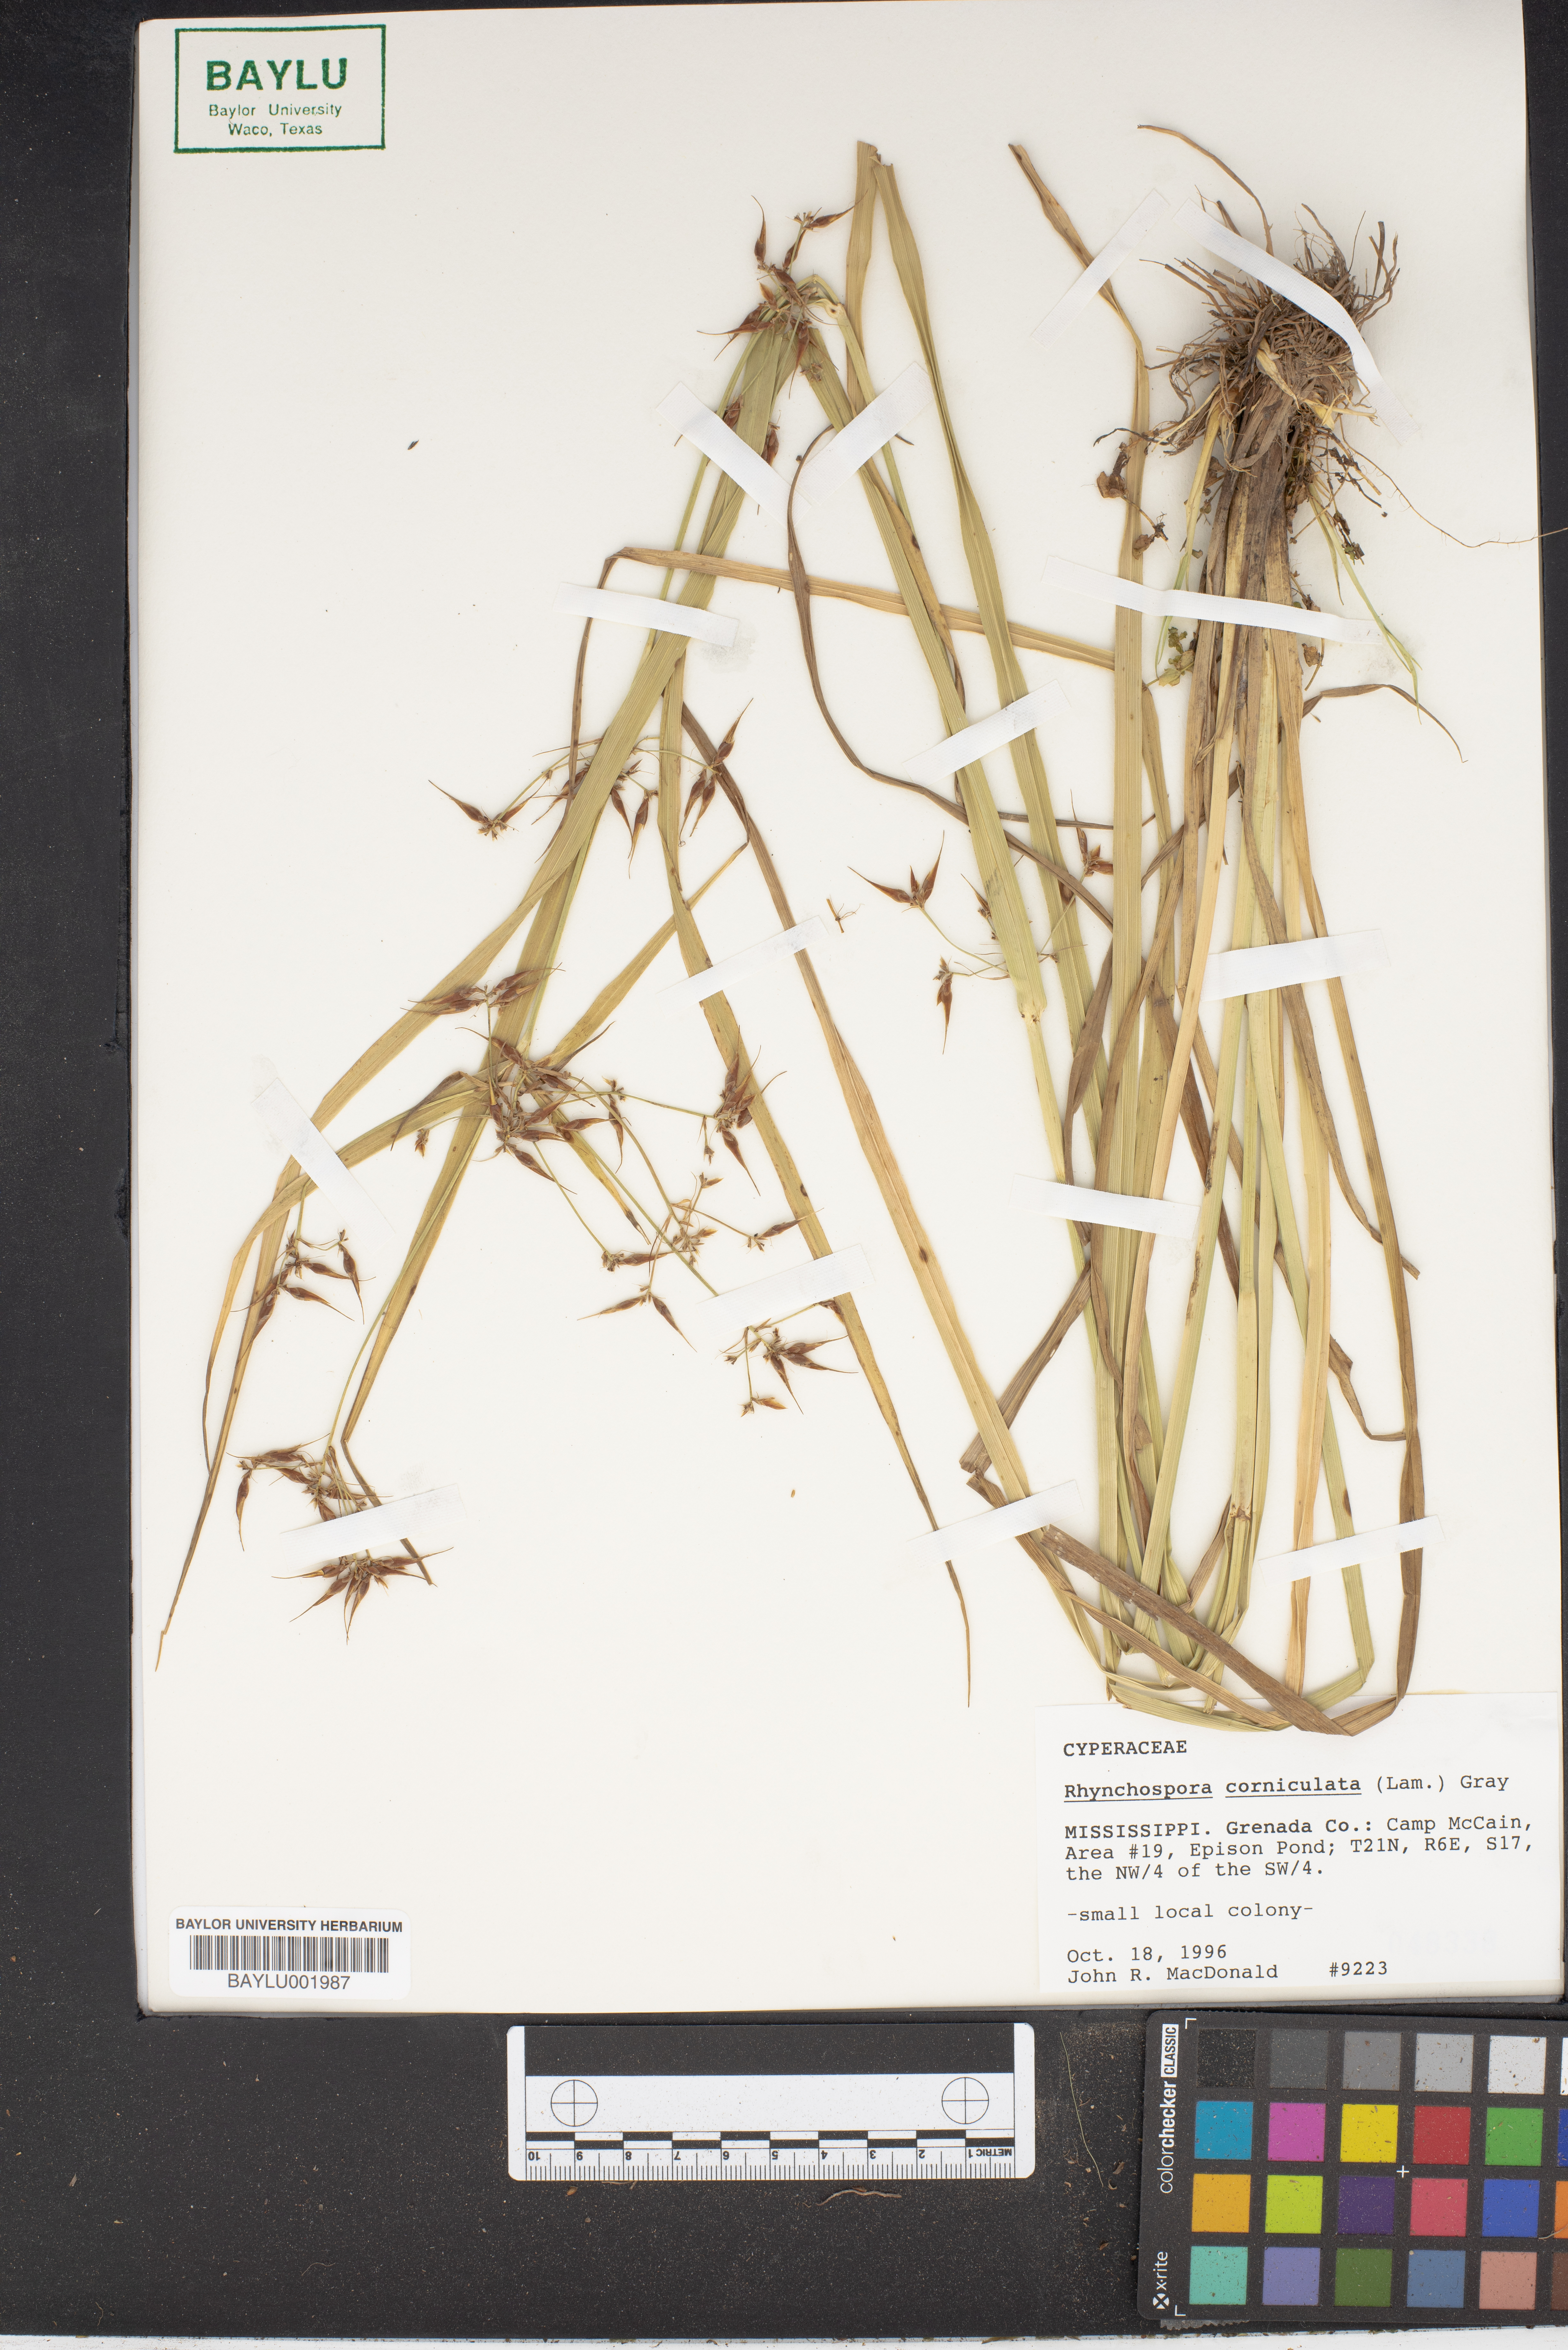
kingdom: Plantae
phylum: Tracheophyta
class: Liliopsida
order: Poales
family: Cyperaceae
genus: Rhynchospora
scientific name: Rhynchospora corniculata
